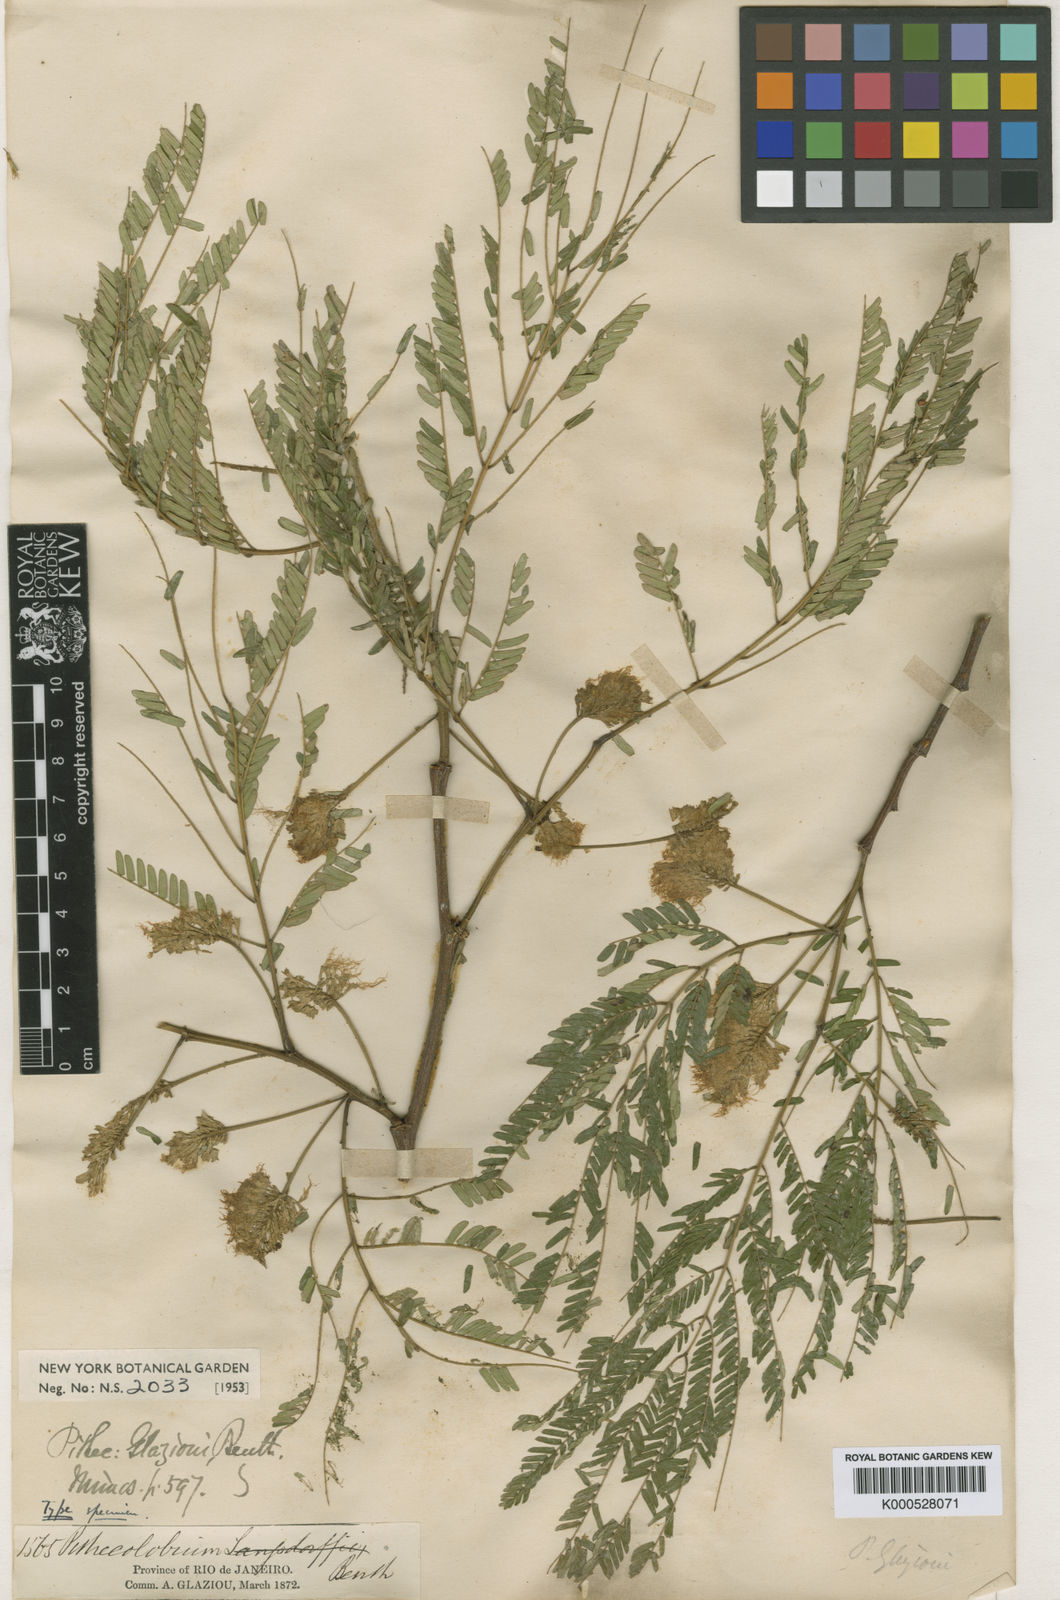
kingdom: Plantae
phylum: Tracheophyta
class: Magnoliopsida
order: Fabales
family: Fabaceae
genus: Chloroleucon
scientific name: Chloroleucon
